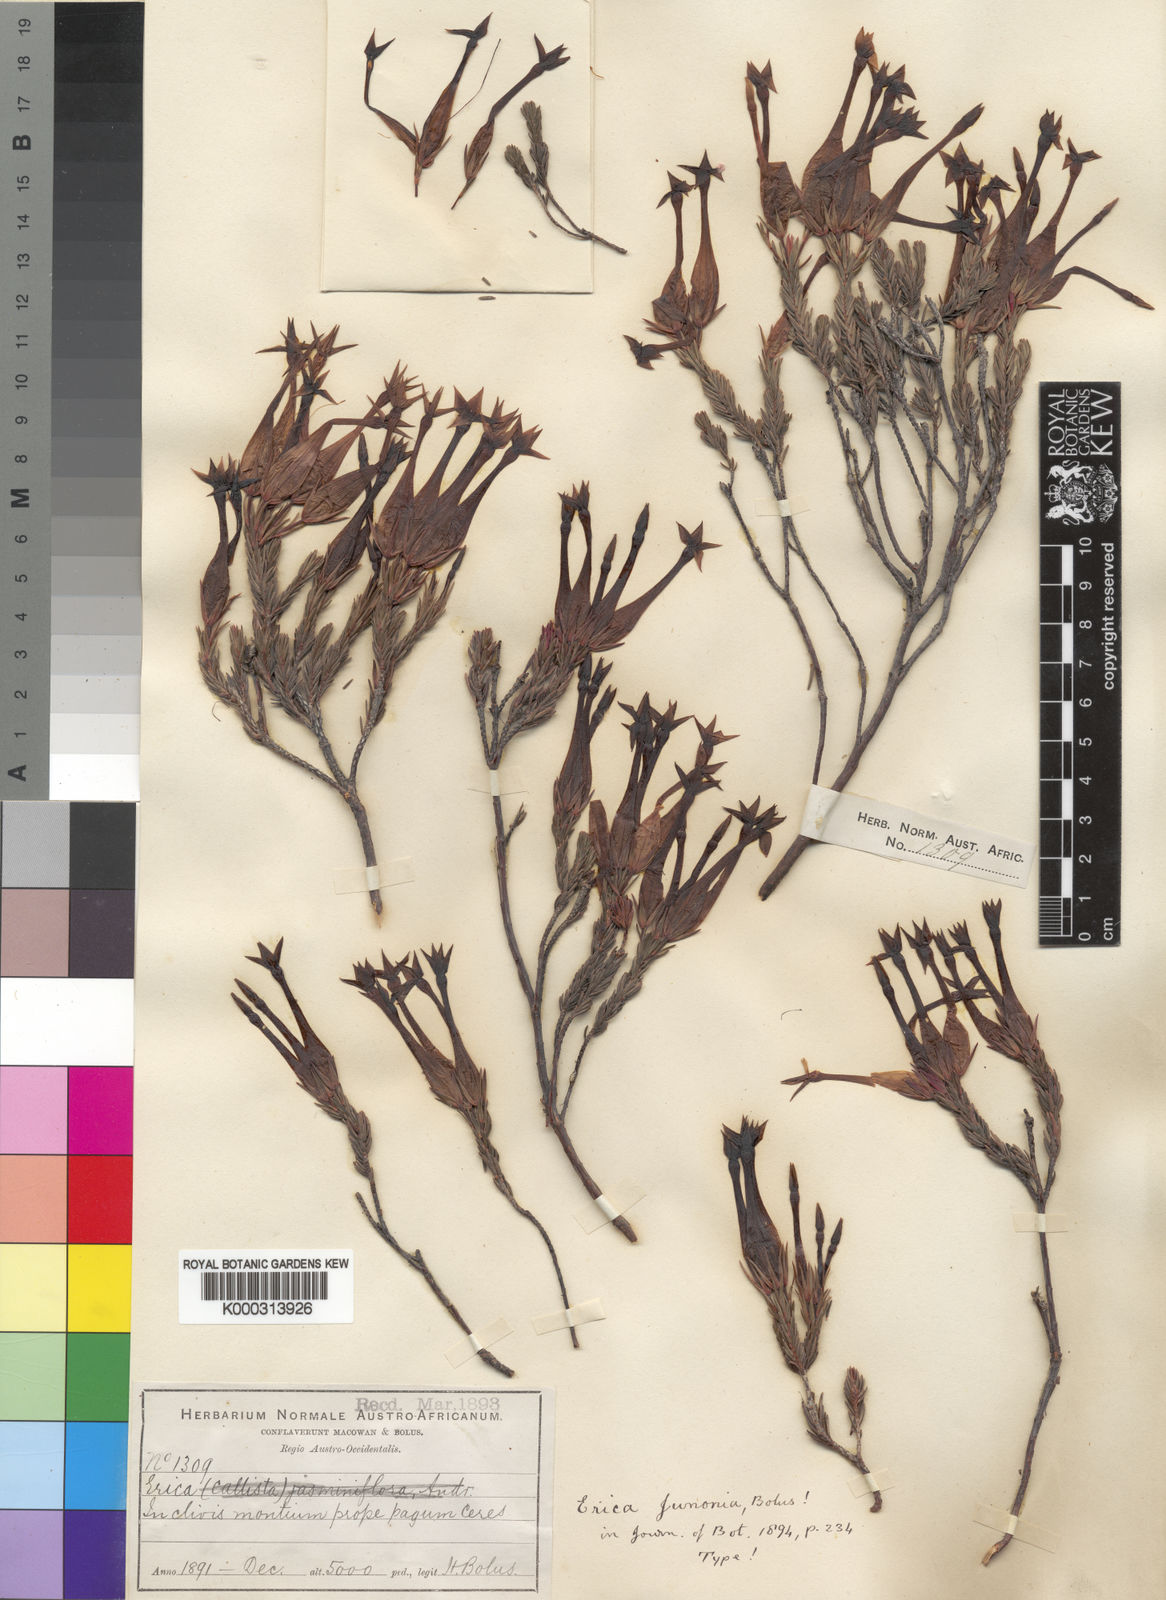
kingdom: Plantae
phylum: Tracheophyta
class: Magnoliopsida
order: Ericales
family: Ericaceae
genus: Erica
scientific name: Erica junonia
